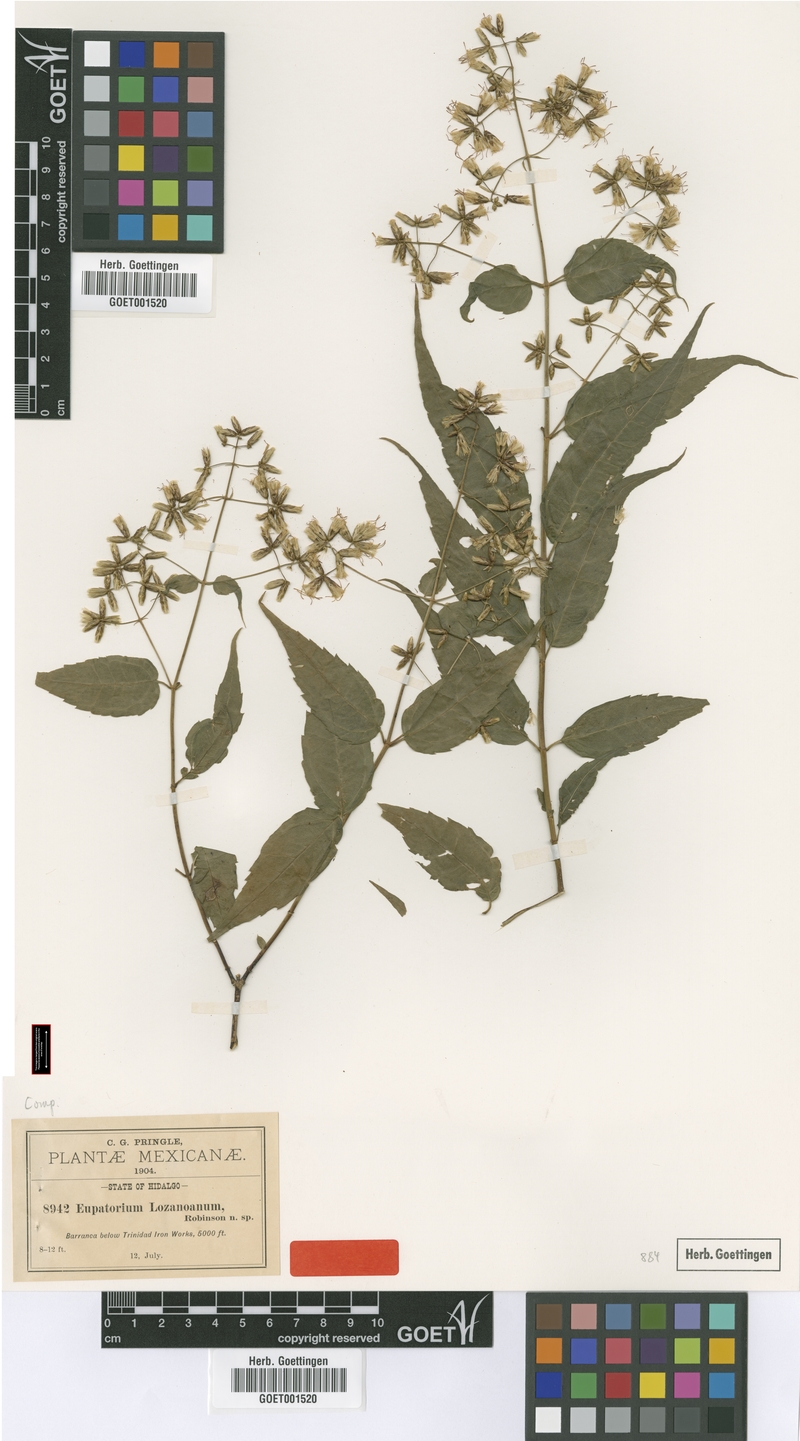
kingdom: Plantae
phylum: Tracheophyta
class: Magnoliopsida
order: Asterales
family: Asteraceae
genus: Critonia
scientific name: Critonia lozanoana
